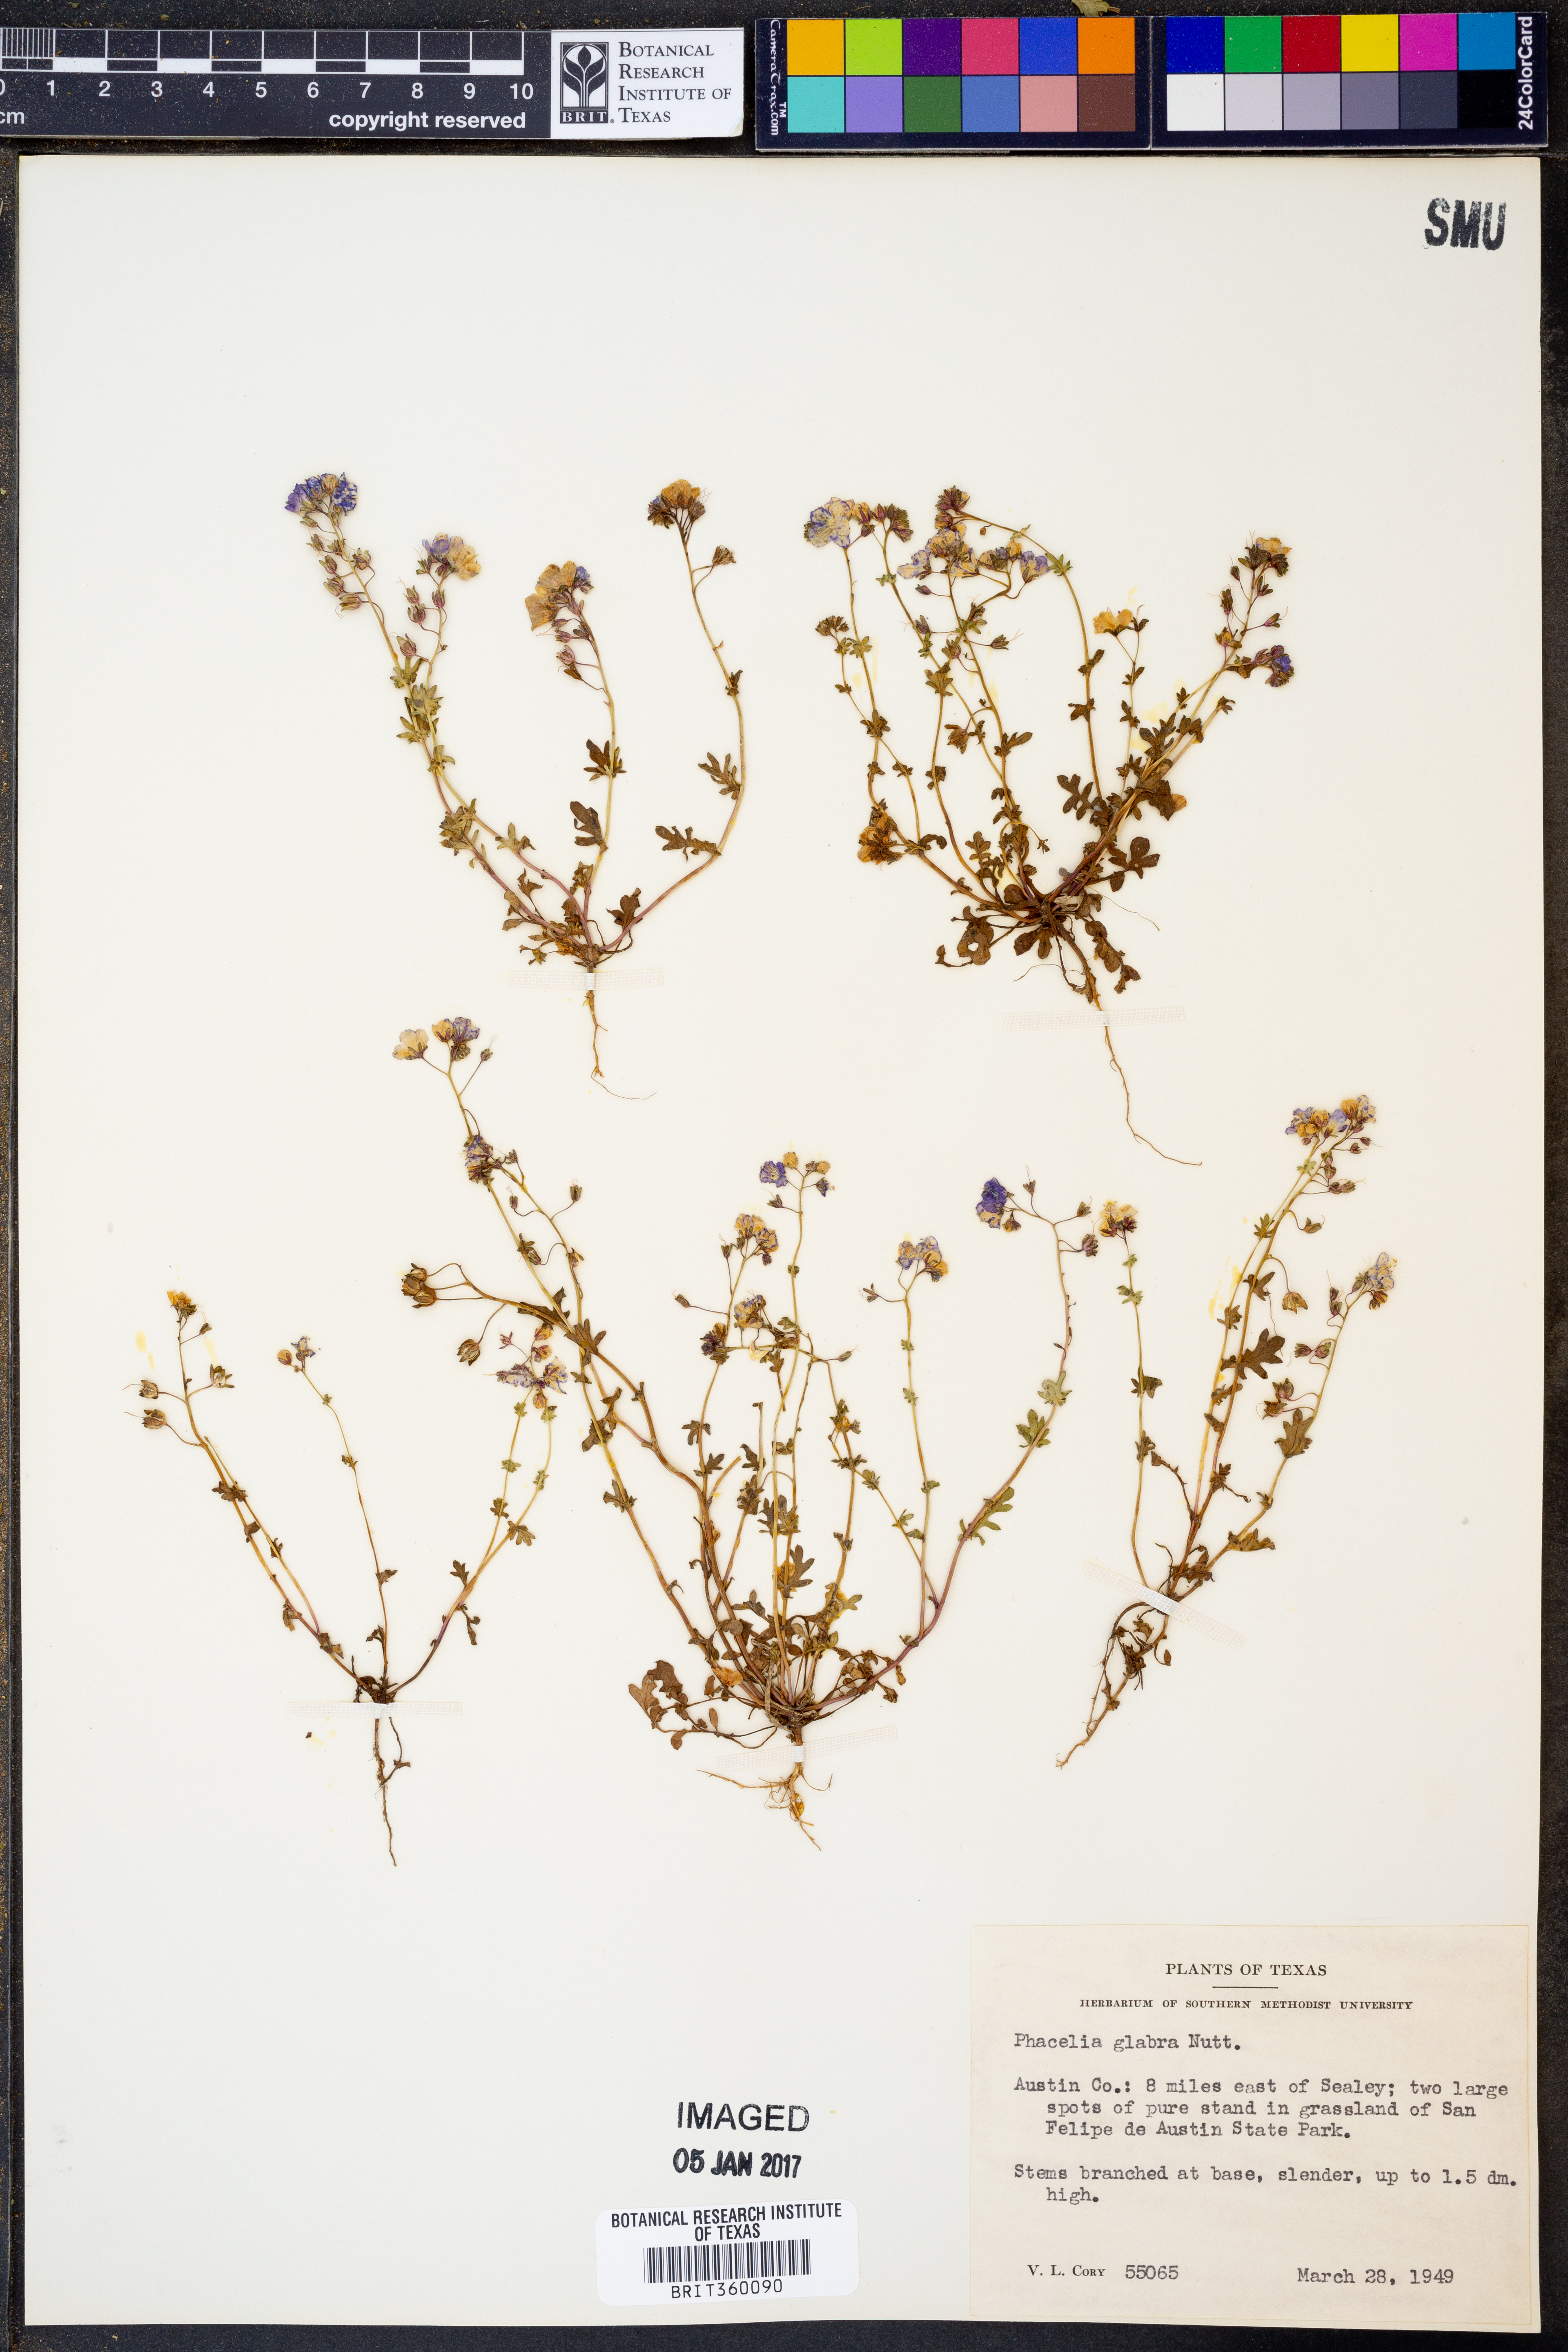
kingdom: Plantae
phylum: Tracheophyta
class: Magnoliopsida
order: Boraginales
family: Hydrophyllaceae
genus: Phacelia
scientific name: Phacelia glabra
